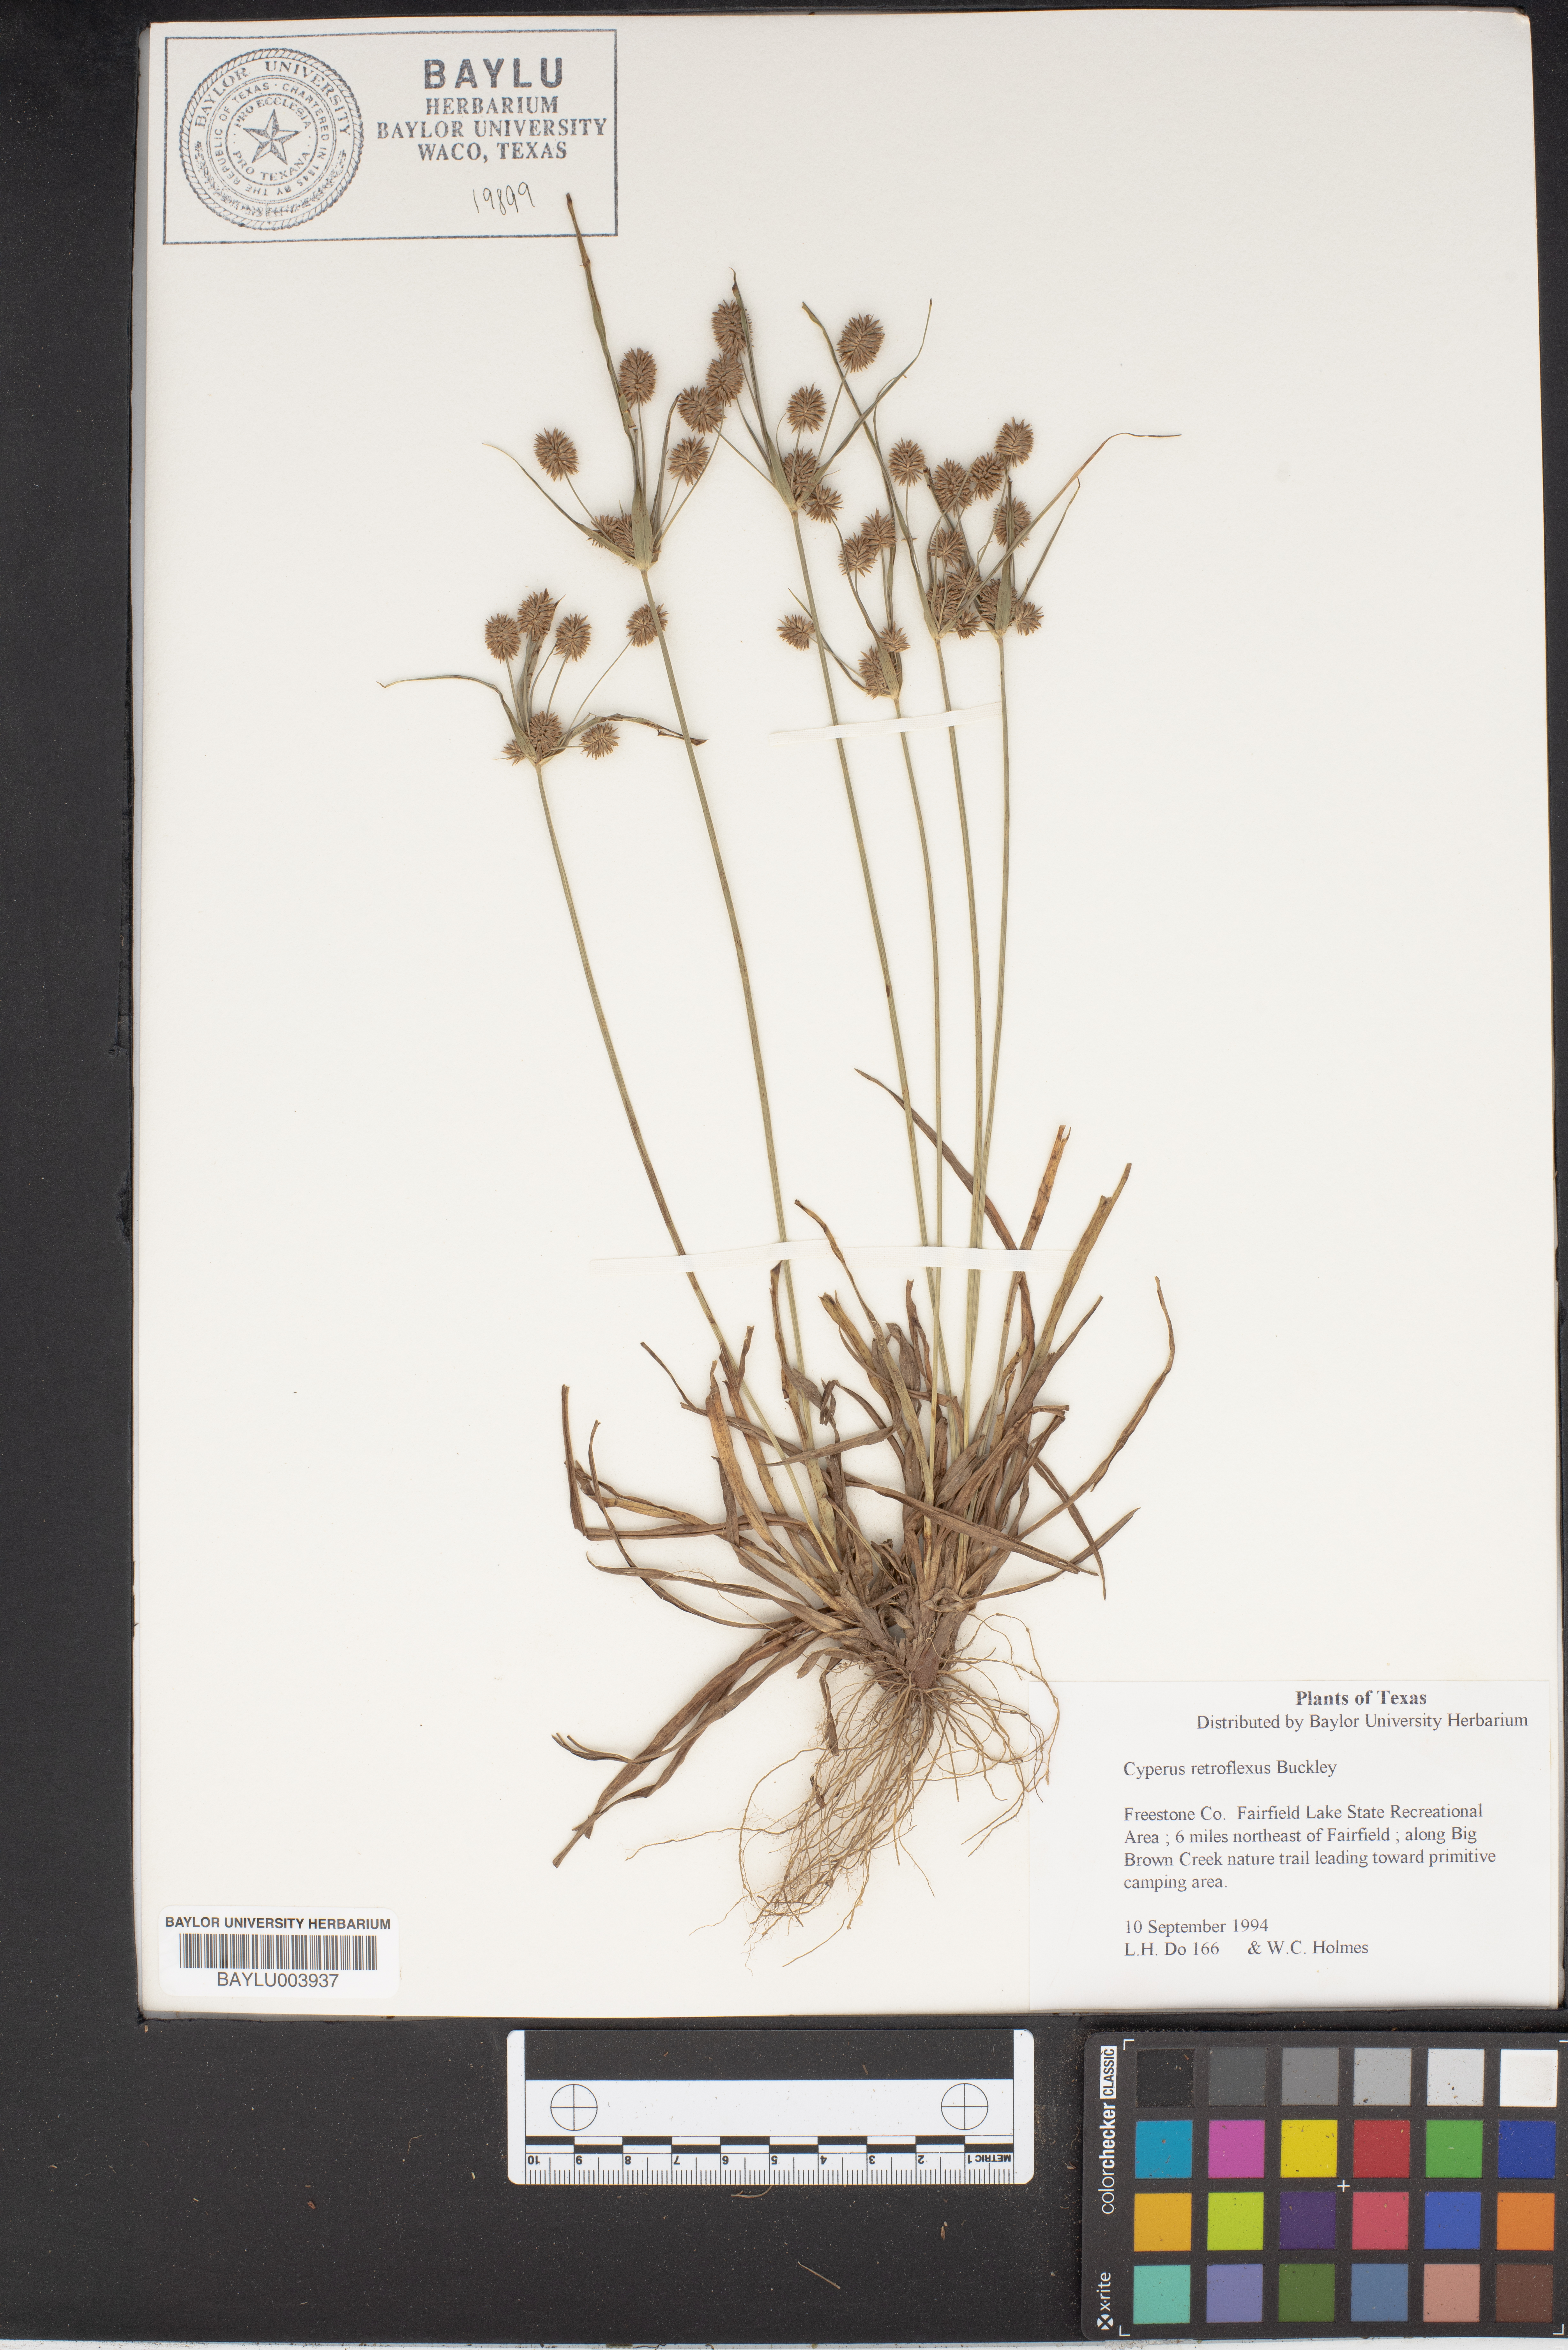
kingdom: Plantae
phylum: Tracheophyta
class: Liliopsida
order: Poales
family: Cyperaceae
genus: Cyperus
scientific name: Cyperus retroflexus
